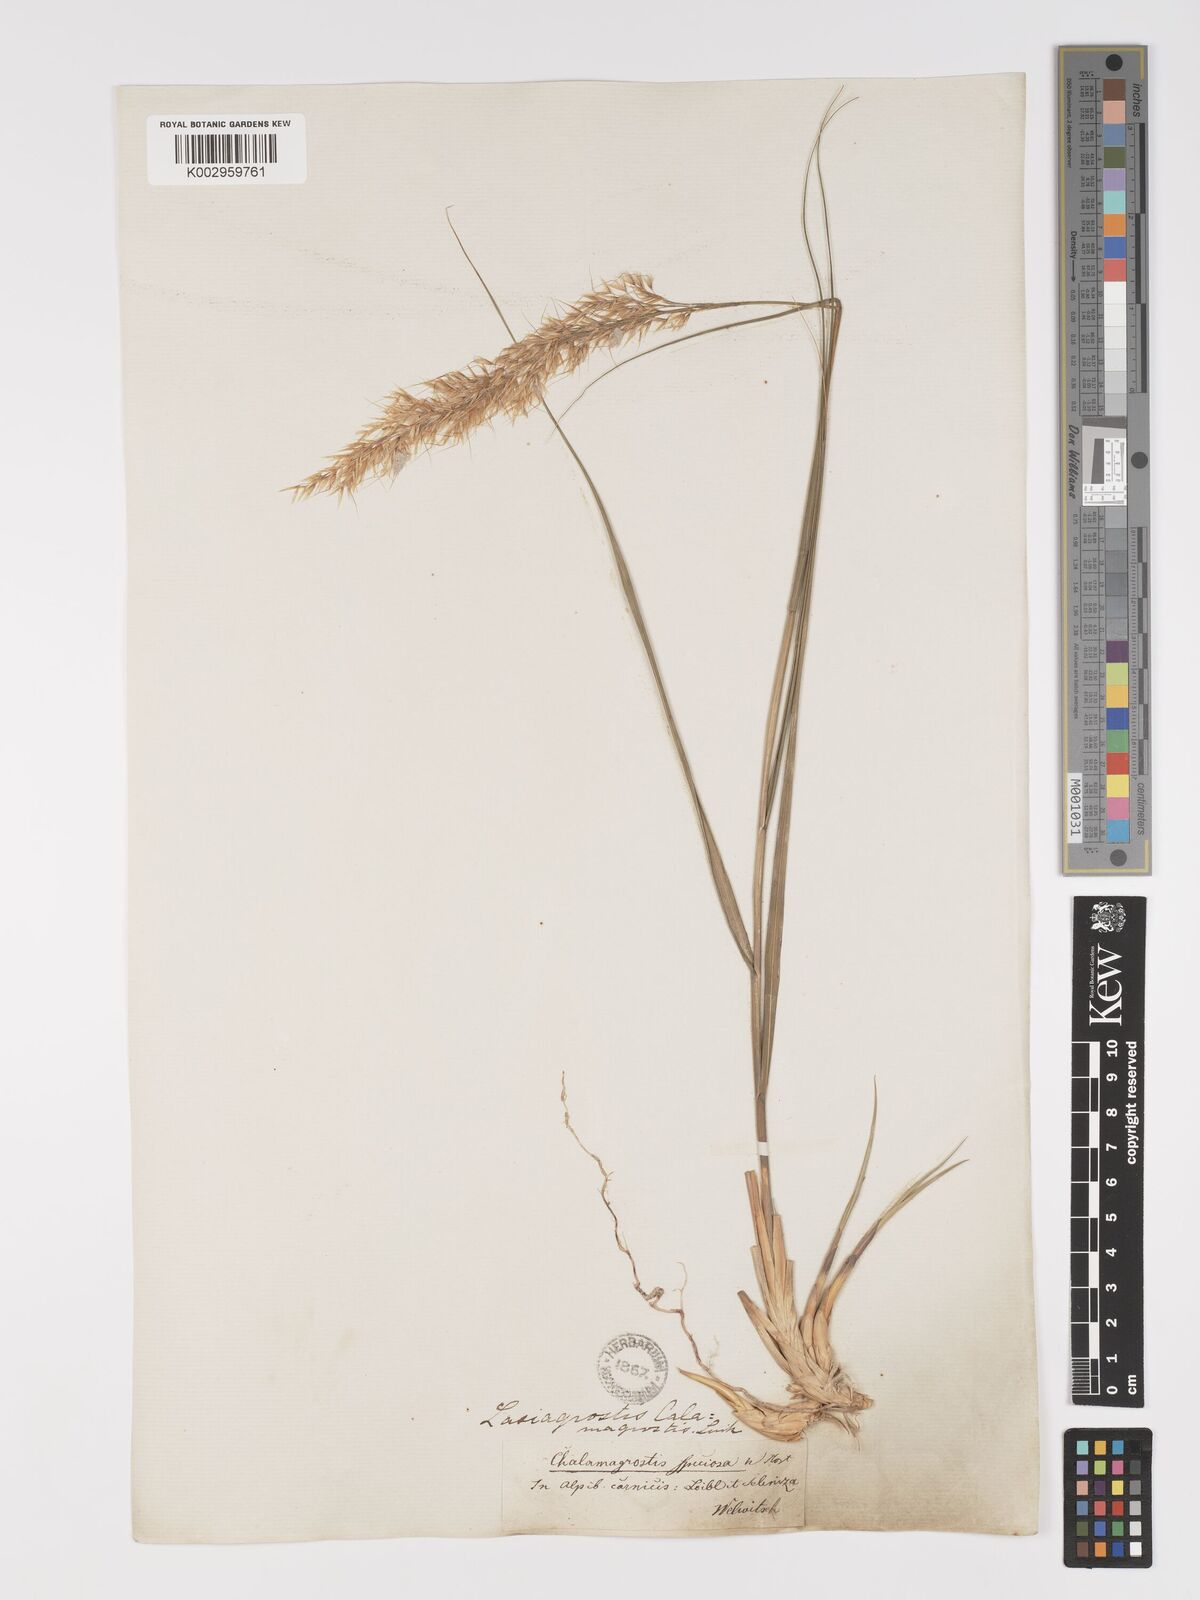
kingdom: Plantae
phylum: Tracheophyta
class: Liliopsida
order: Poales
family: Poaceae
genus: Achnatherum
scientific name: Achnatherum calamagrostis
